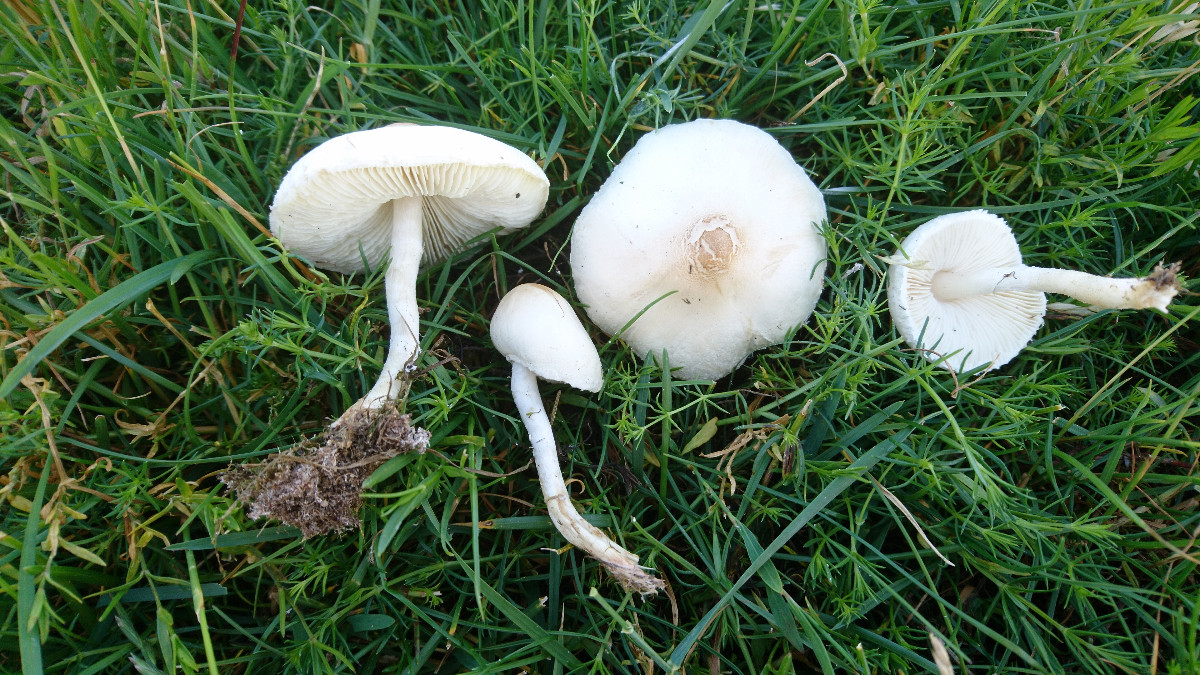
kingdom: Fungi
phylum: Basidiomycota
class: Agaricomycetes
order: Agaricales
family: Agaricaceae
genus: Lepiota
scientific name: Lepiota erminea
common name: hvid parasolhat
